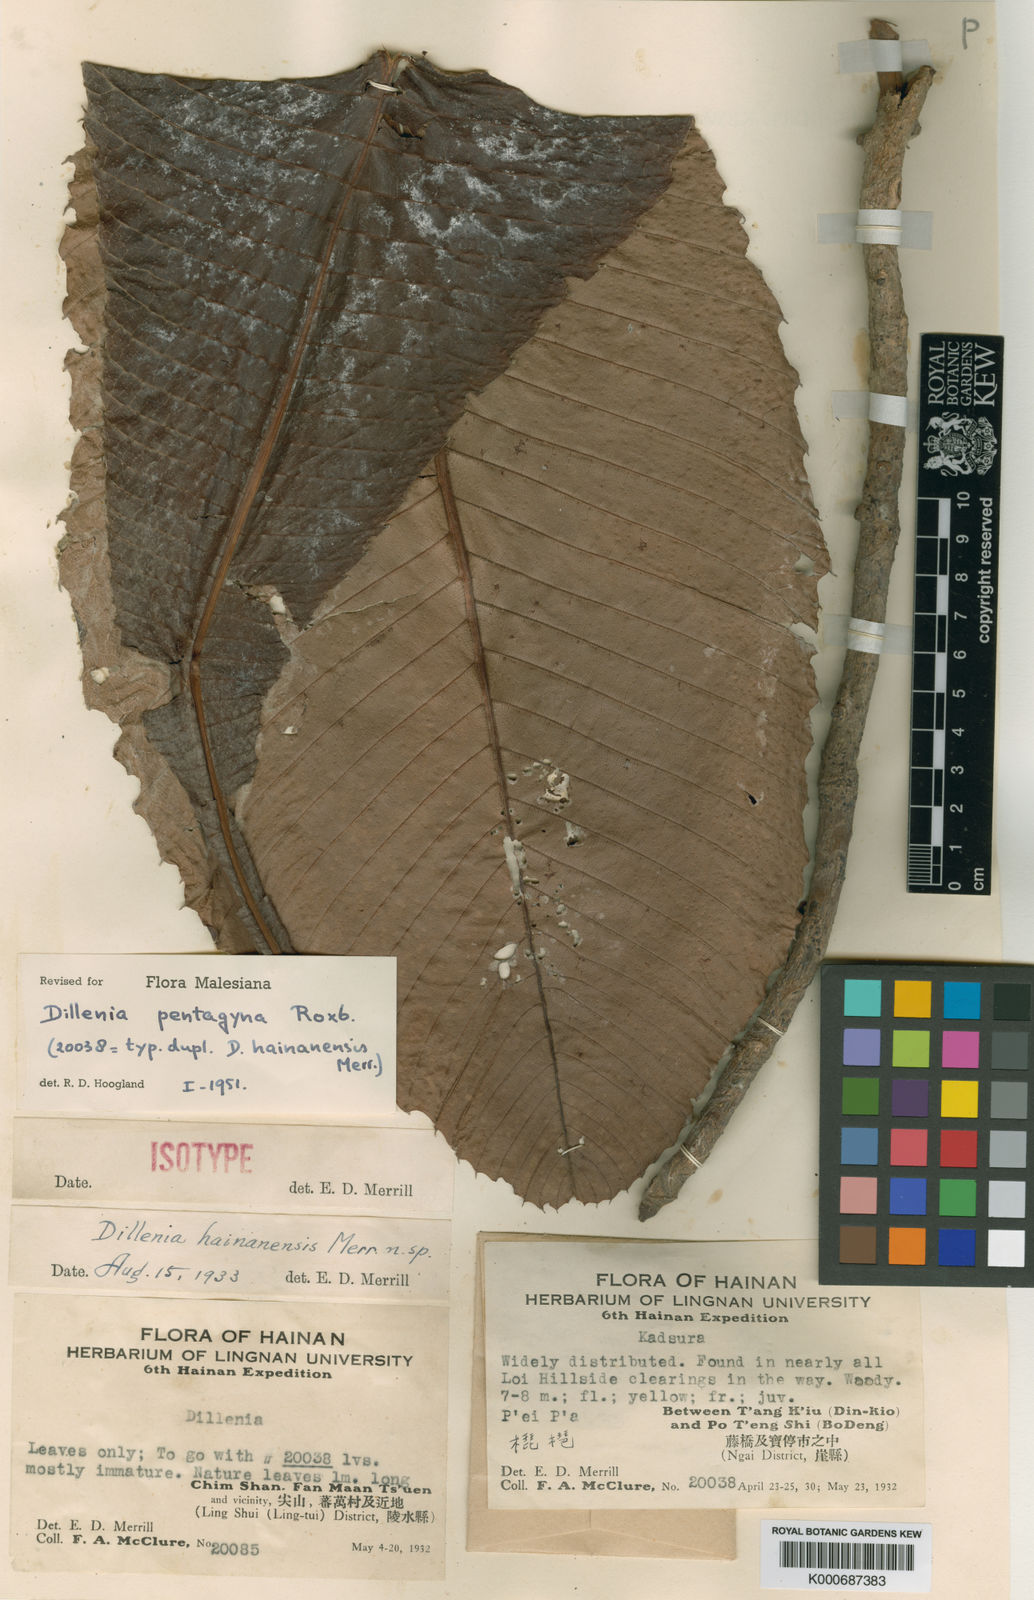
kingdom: Plantae
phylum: Tracheophyta
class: Magnoliopsida
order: Dilleniales
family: Dilleniaceae
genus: Dillenia
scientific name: Dillenia pentagyna
